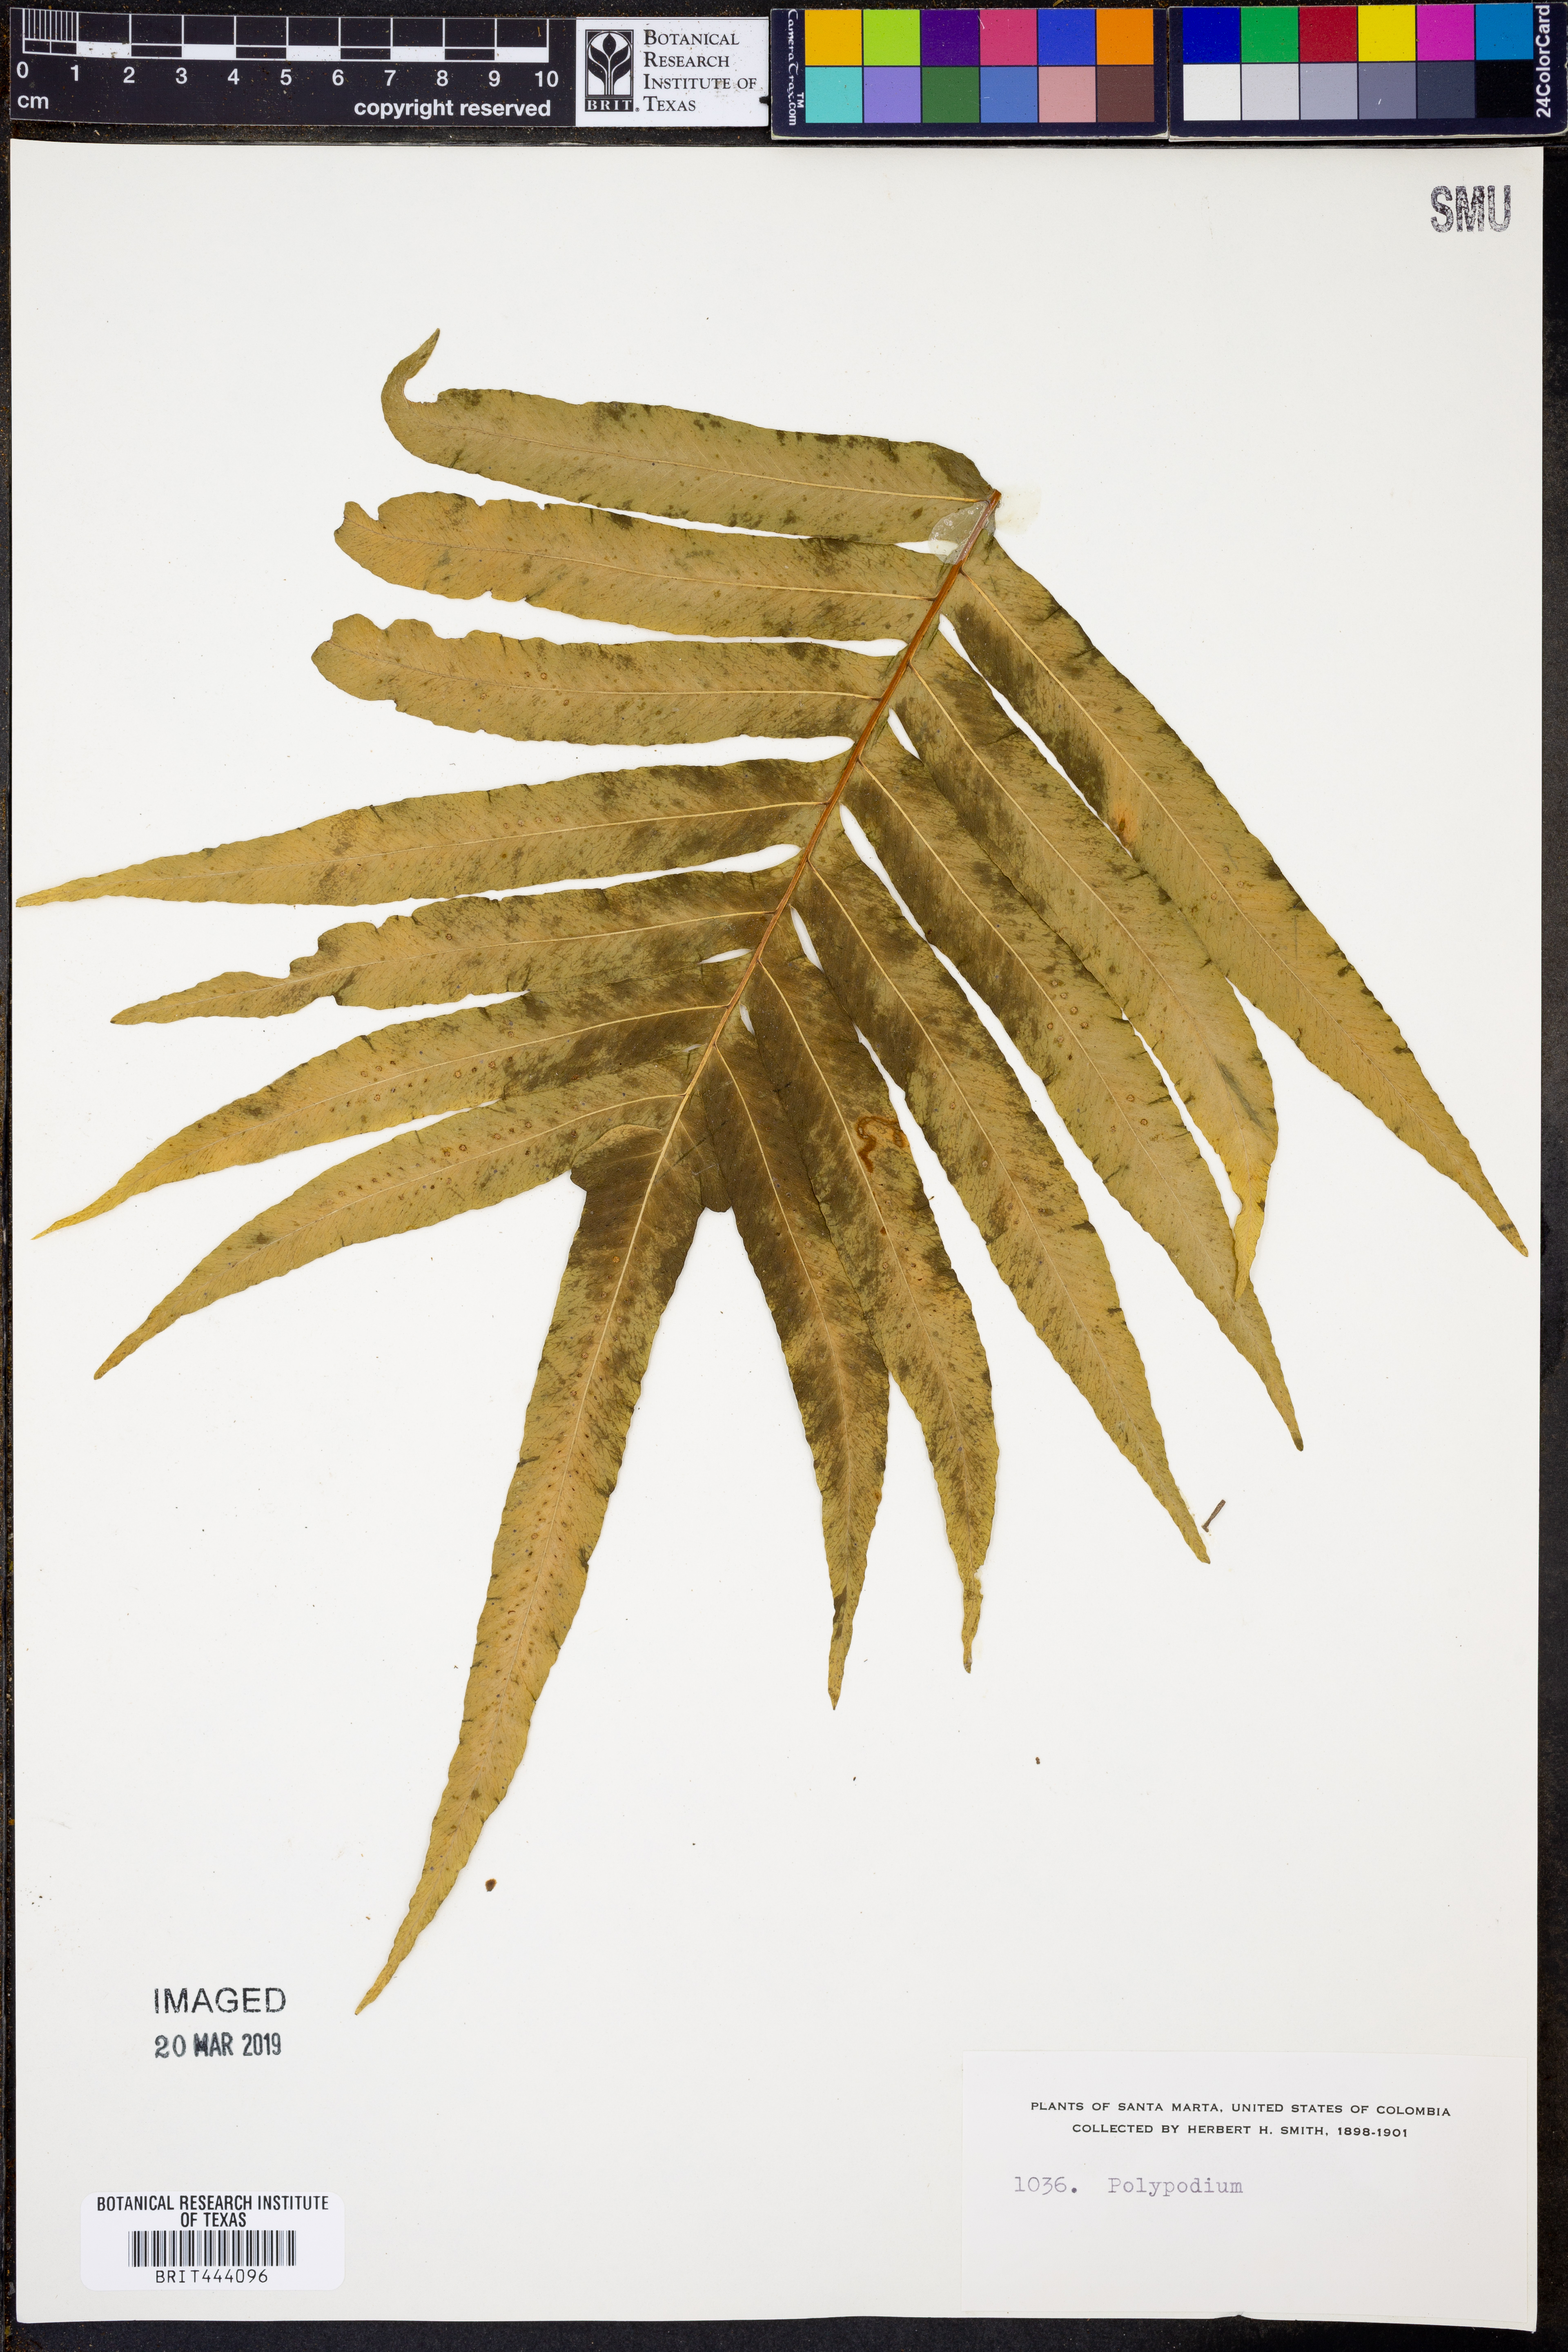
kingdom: Plantae
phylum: Tracheophyta
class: Polypodiopsida
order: Polypodiales
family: Polypodiaceae
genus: Polypodium
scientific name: Polypodium
